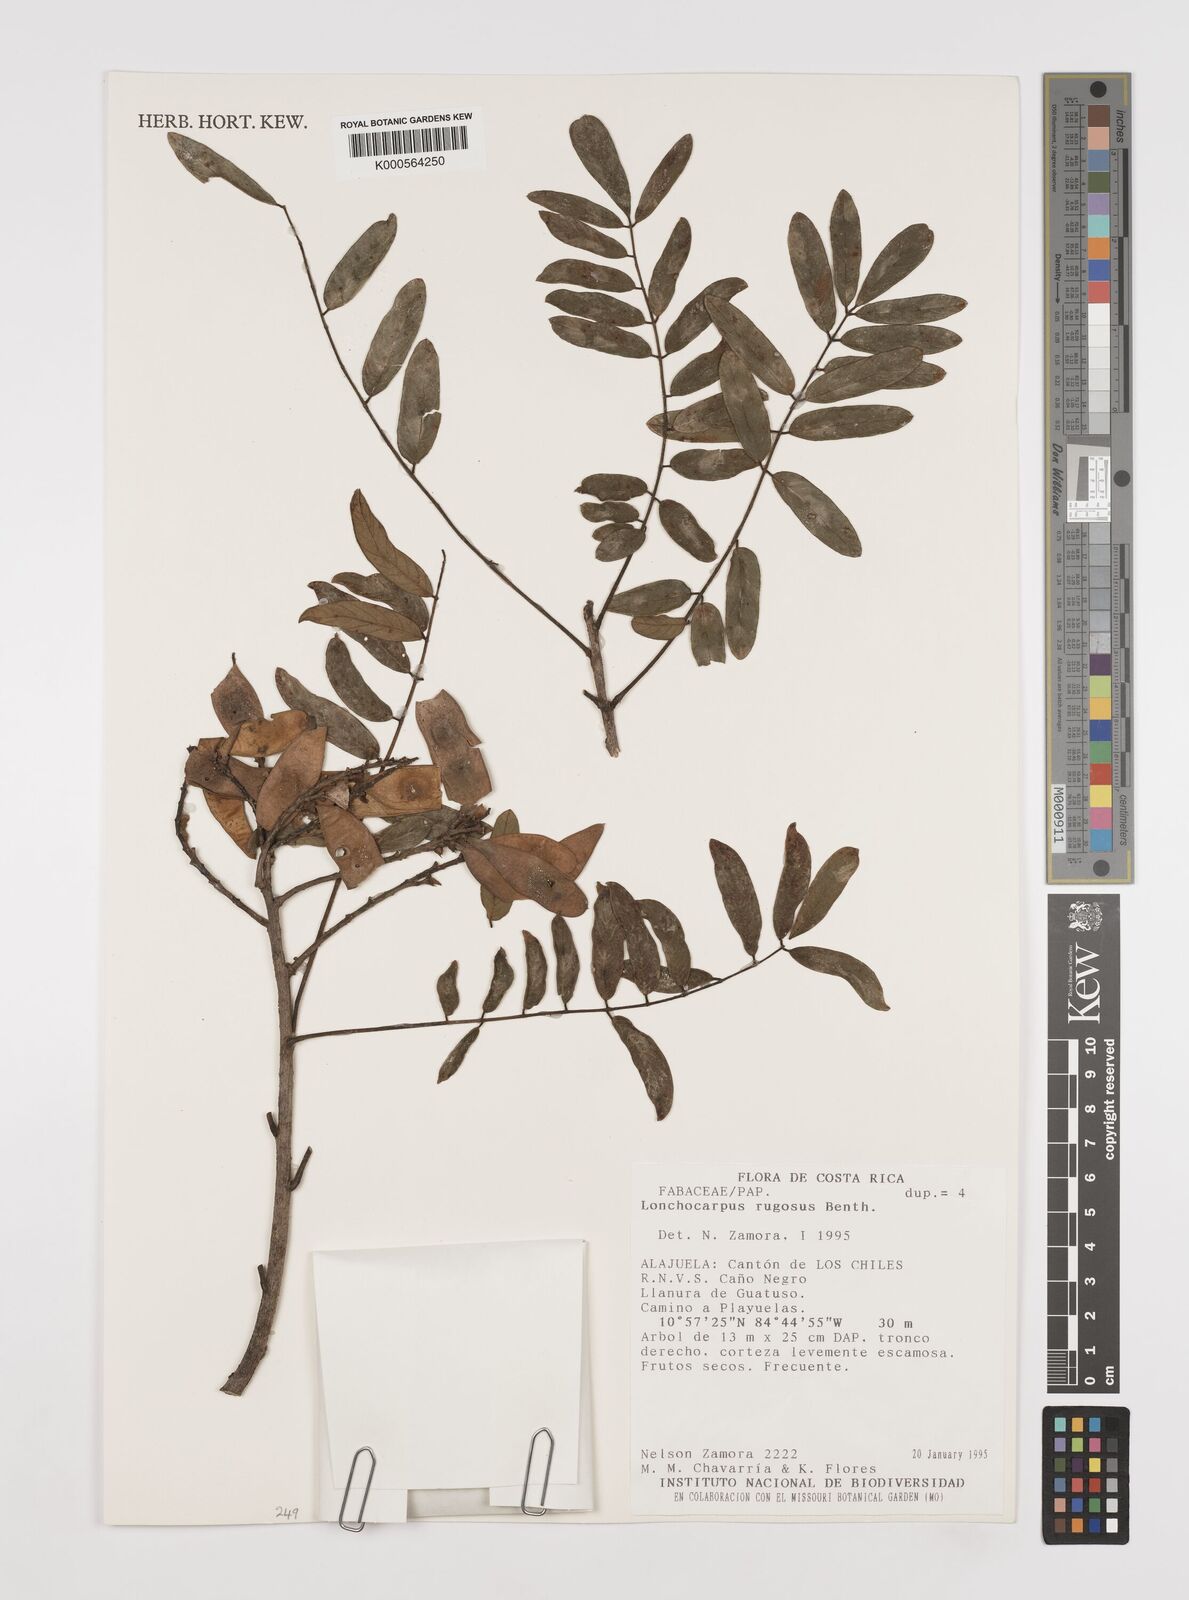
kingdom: Plantae
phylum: Tracheophyta
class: Magnoliopsida
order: Fabales
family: Fabaceae
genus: Lonchocarpus
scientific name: Lonchocarpus rugosus
